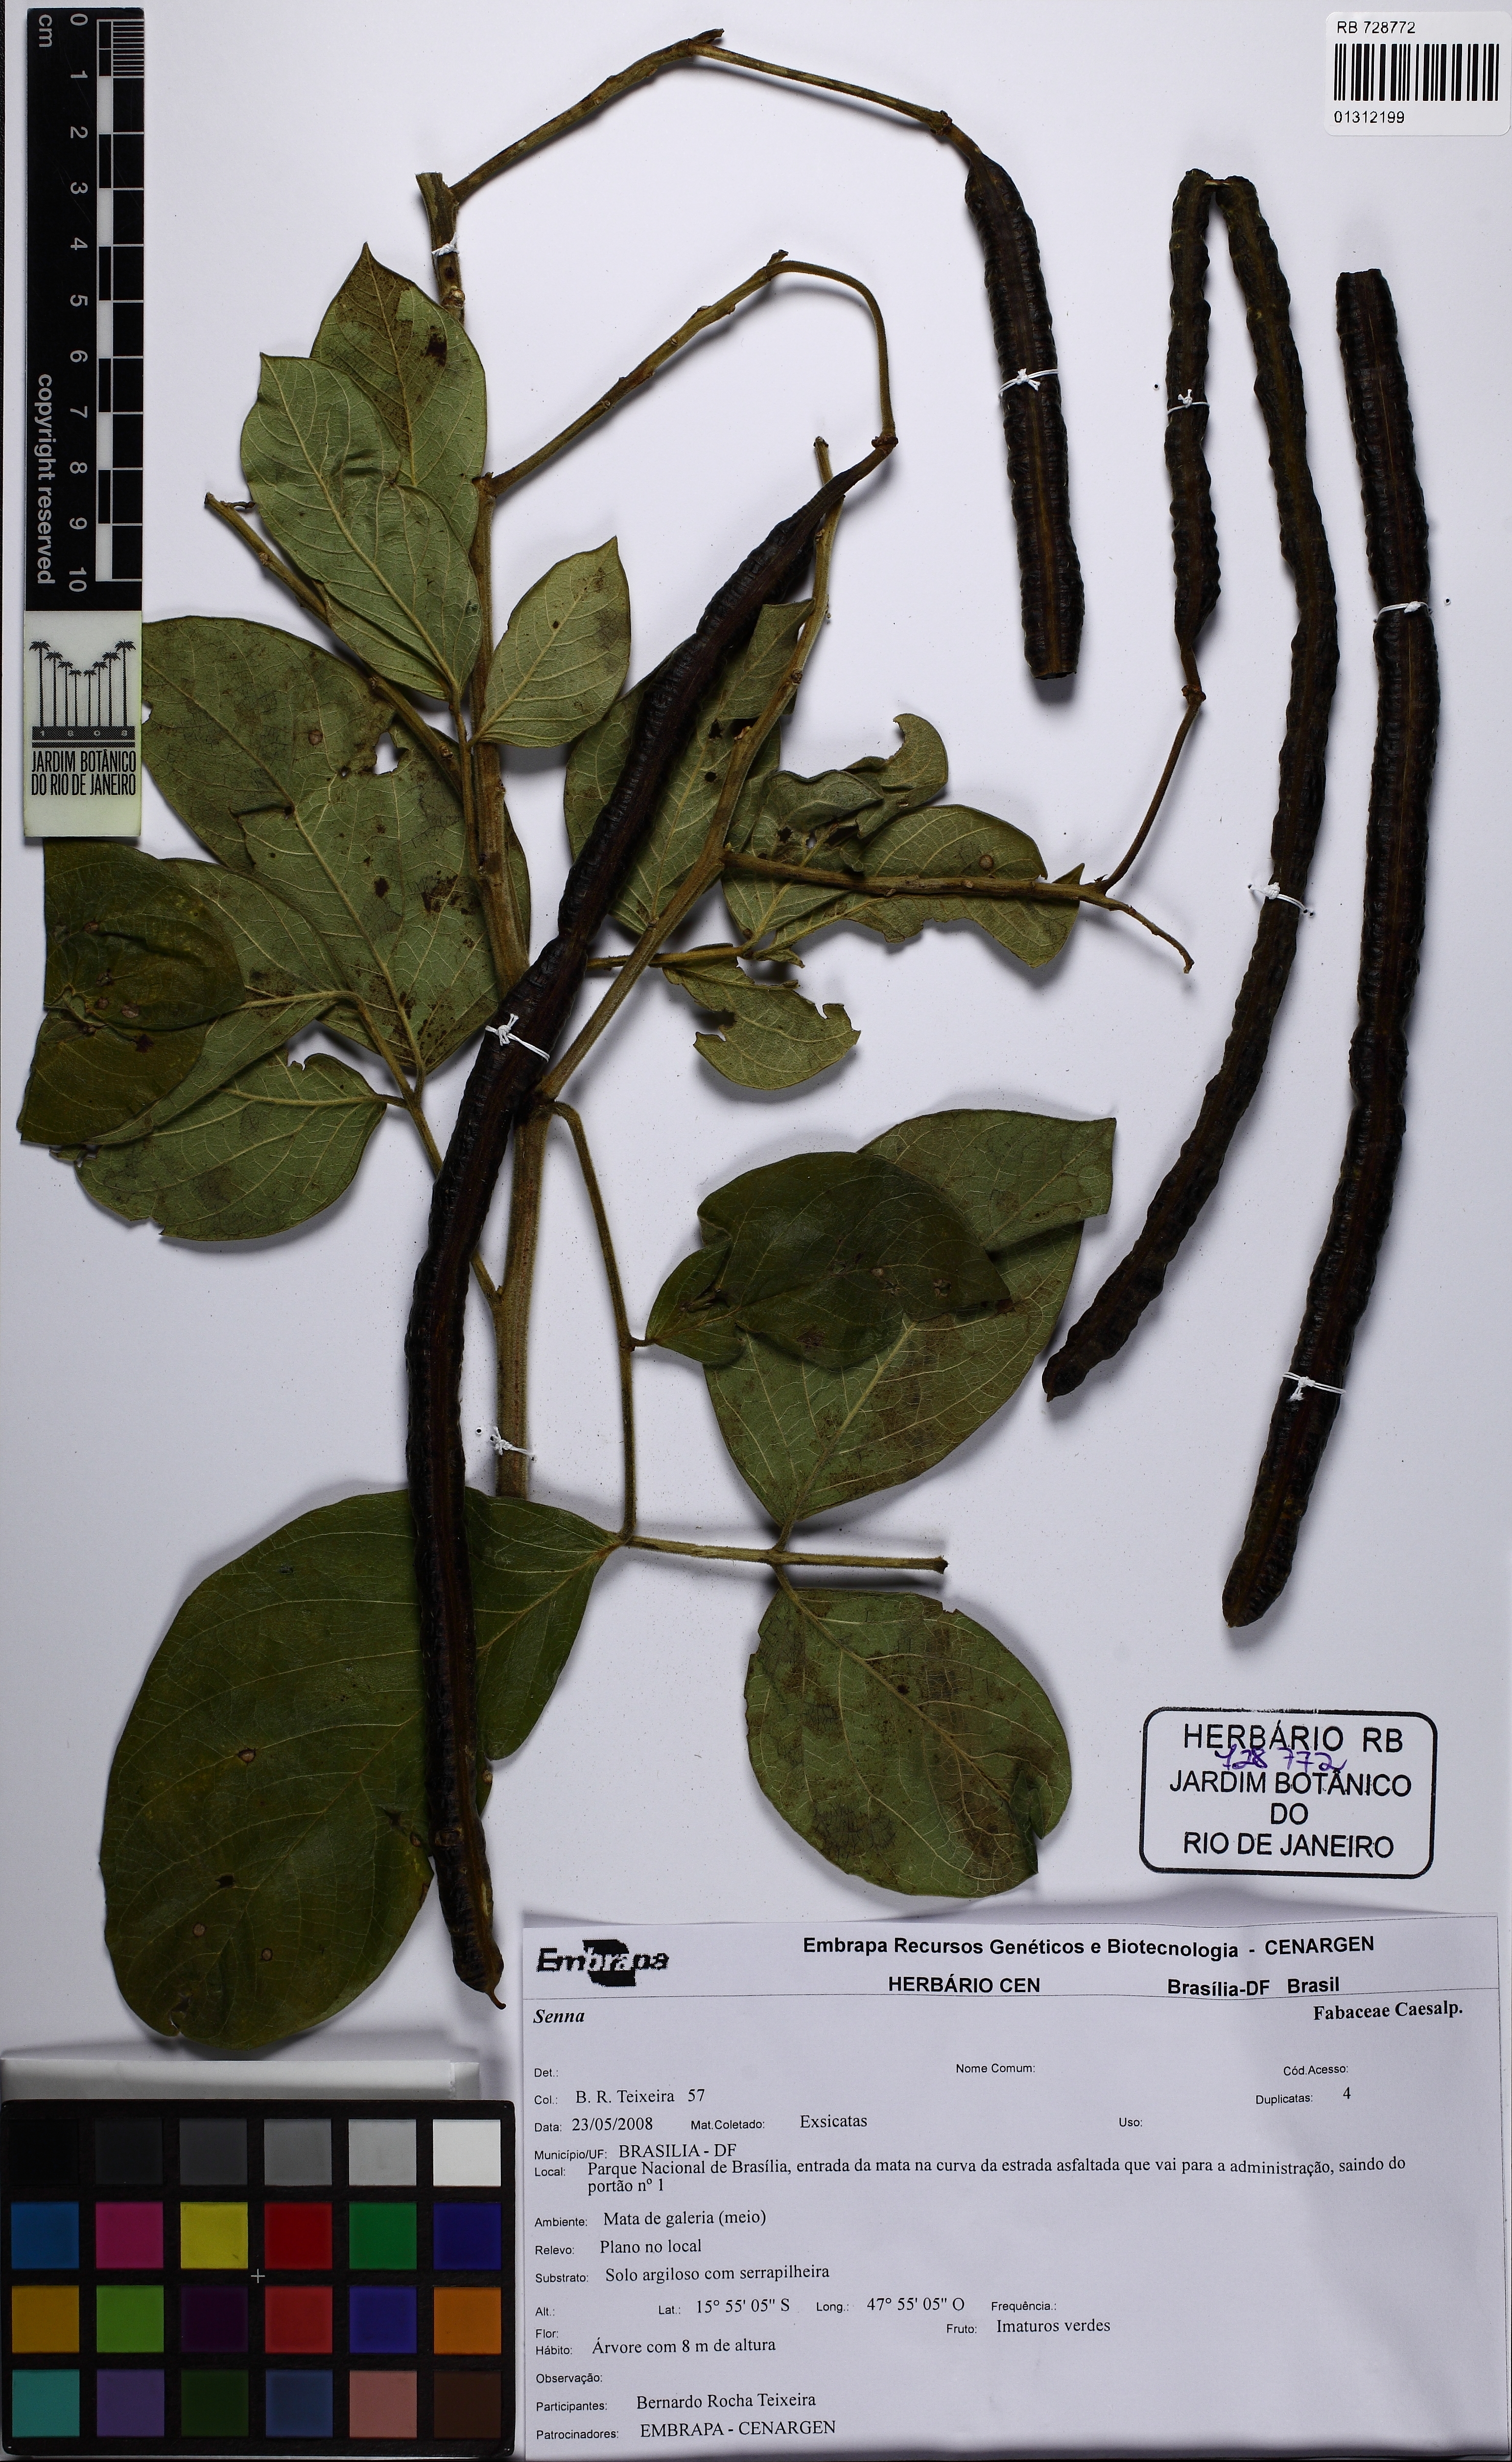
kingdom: Plantae
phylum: Tracheophyta
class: Magnoliopsida
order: Fabales
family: Fabaceae
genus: Senna
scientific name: Senna macranthera
